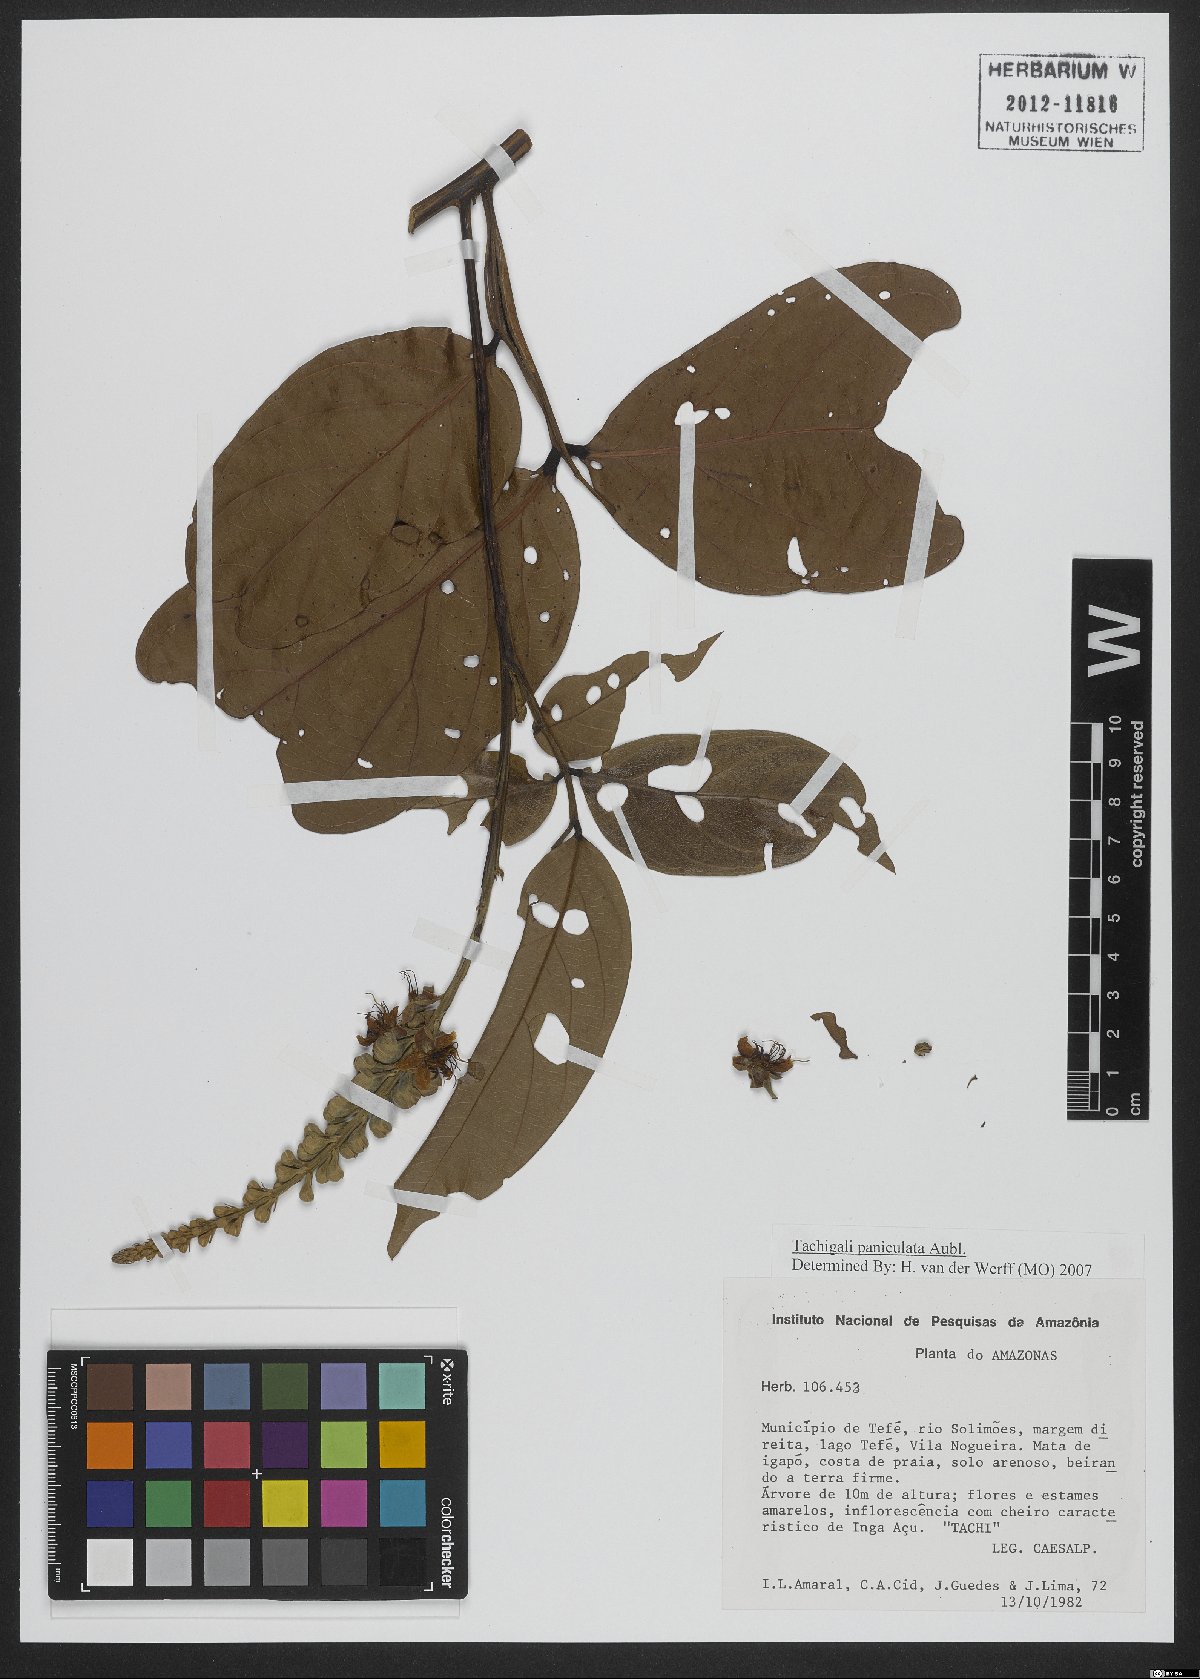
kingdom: Plantae
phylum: Tracheophyta
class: Magnoliopsida
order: Fabales
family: Fabaceae
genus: Tachigali
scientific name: Tachigali paniculata
